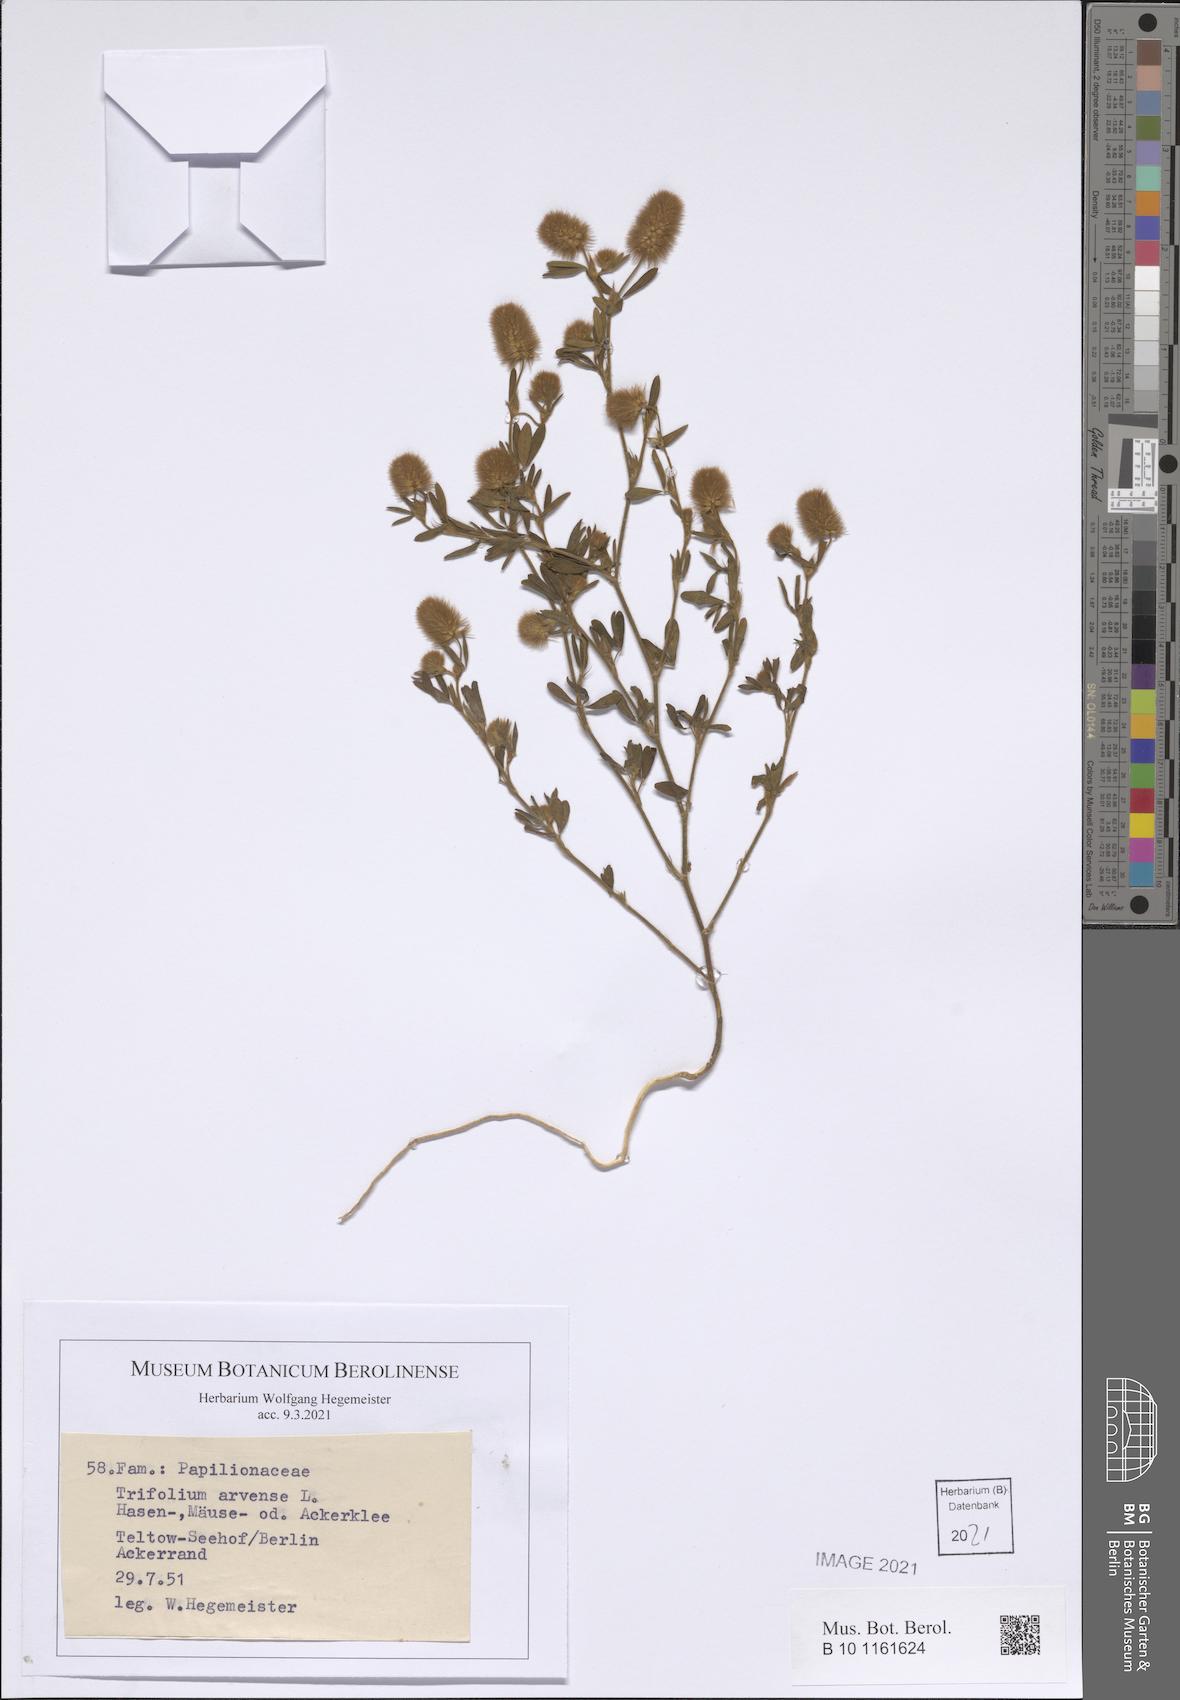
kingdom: Plantae
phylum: Tracheophyta
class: Magnoliopsida
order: Fabales
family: Fabaceae
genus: Trifolium
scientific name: Trifolium arvense
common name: Hare's-foot clover
